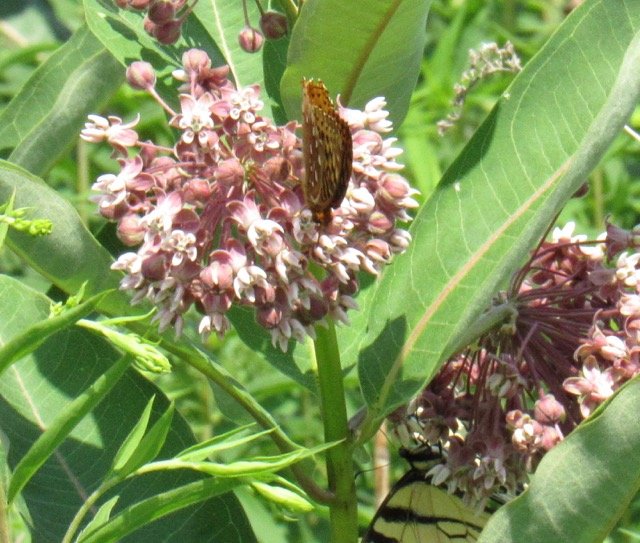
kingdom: Animalia
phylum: Arthropoda
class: Insecta
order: Lepidoptera
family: Nymphalidae
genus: Speyeria
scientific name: Speyeria cybele
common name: Great Spangled Fritillary
